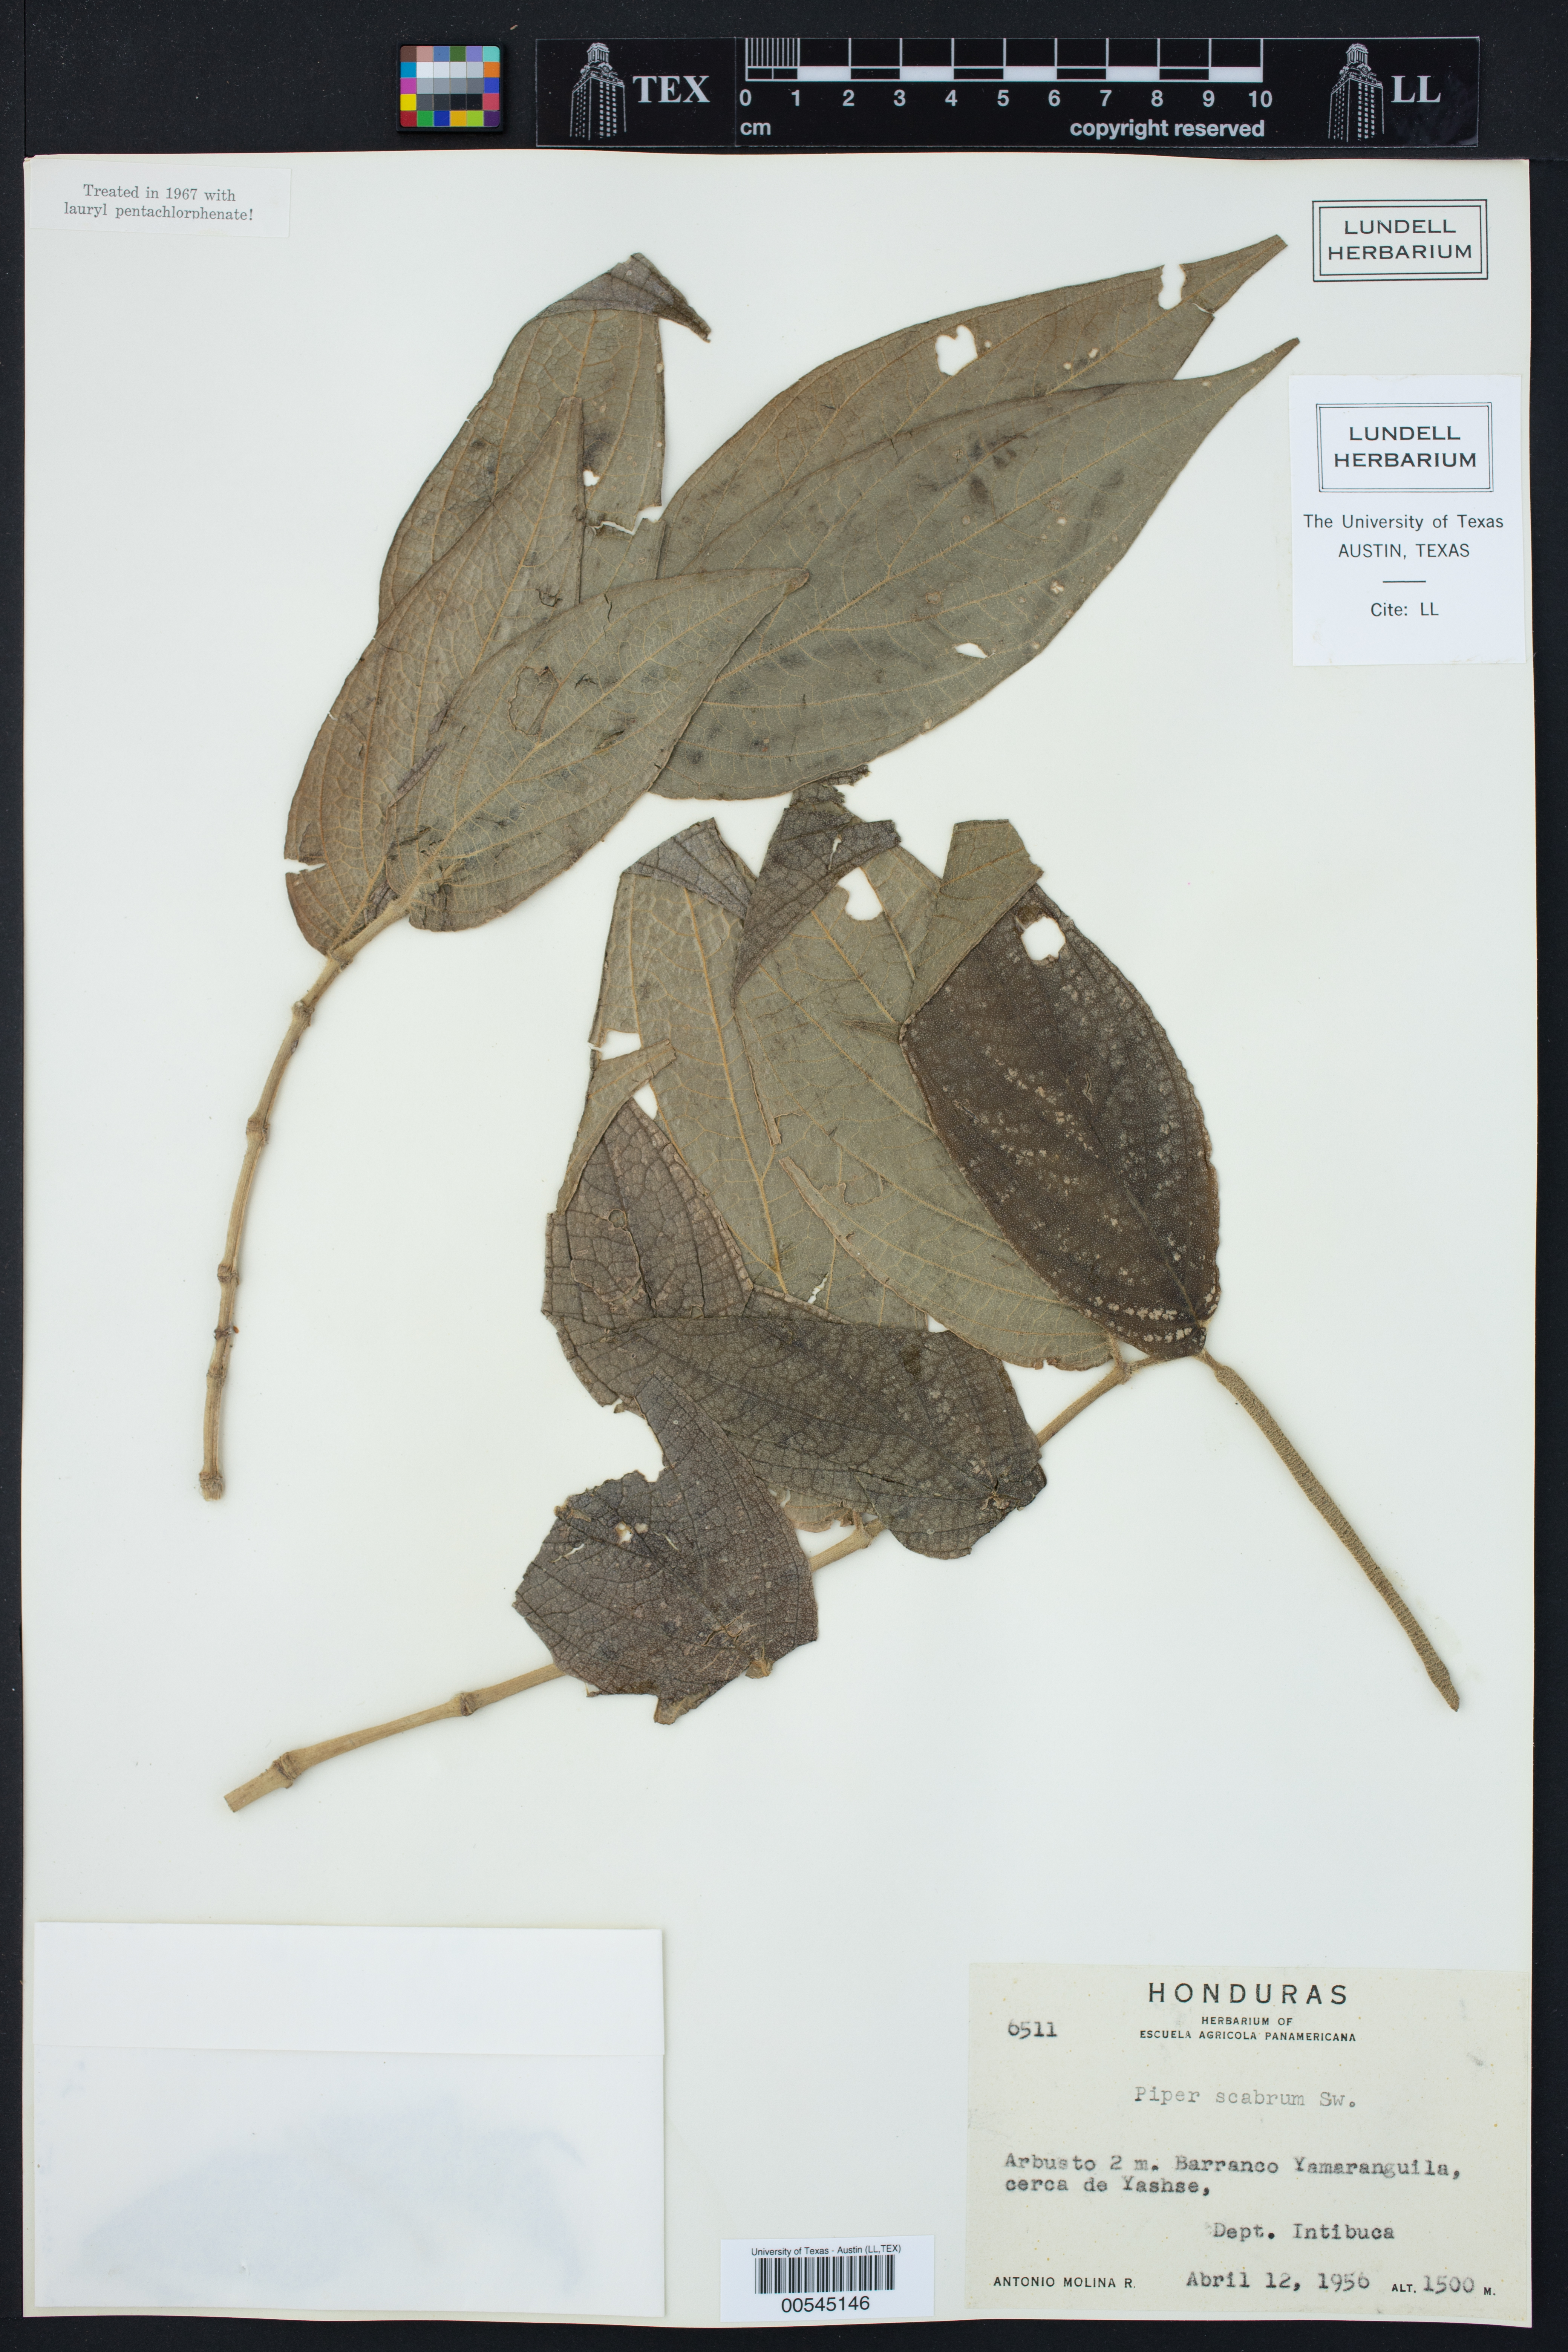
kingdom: Plantae
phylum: Tracheophyta
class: Magnoliopsida
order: Piperales
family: Piperaceae
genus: Piper
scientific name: Piper
